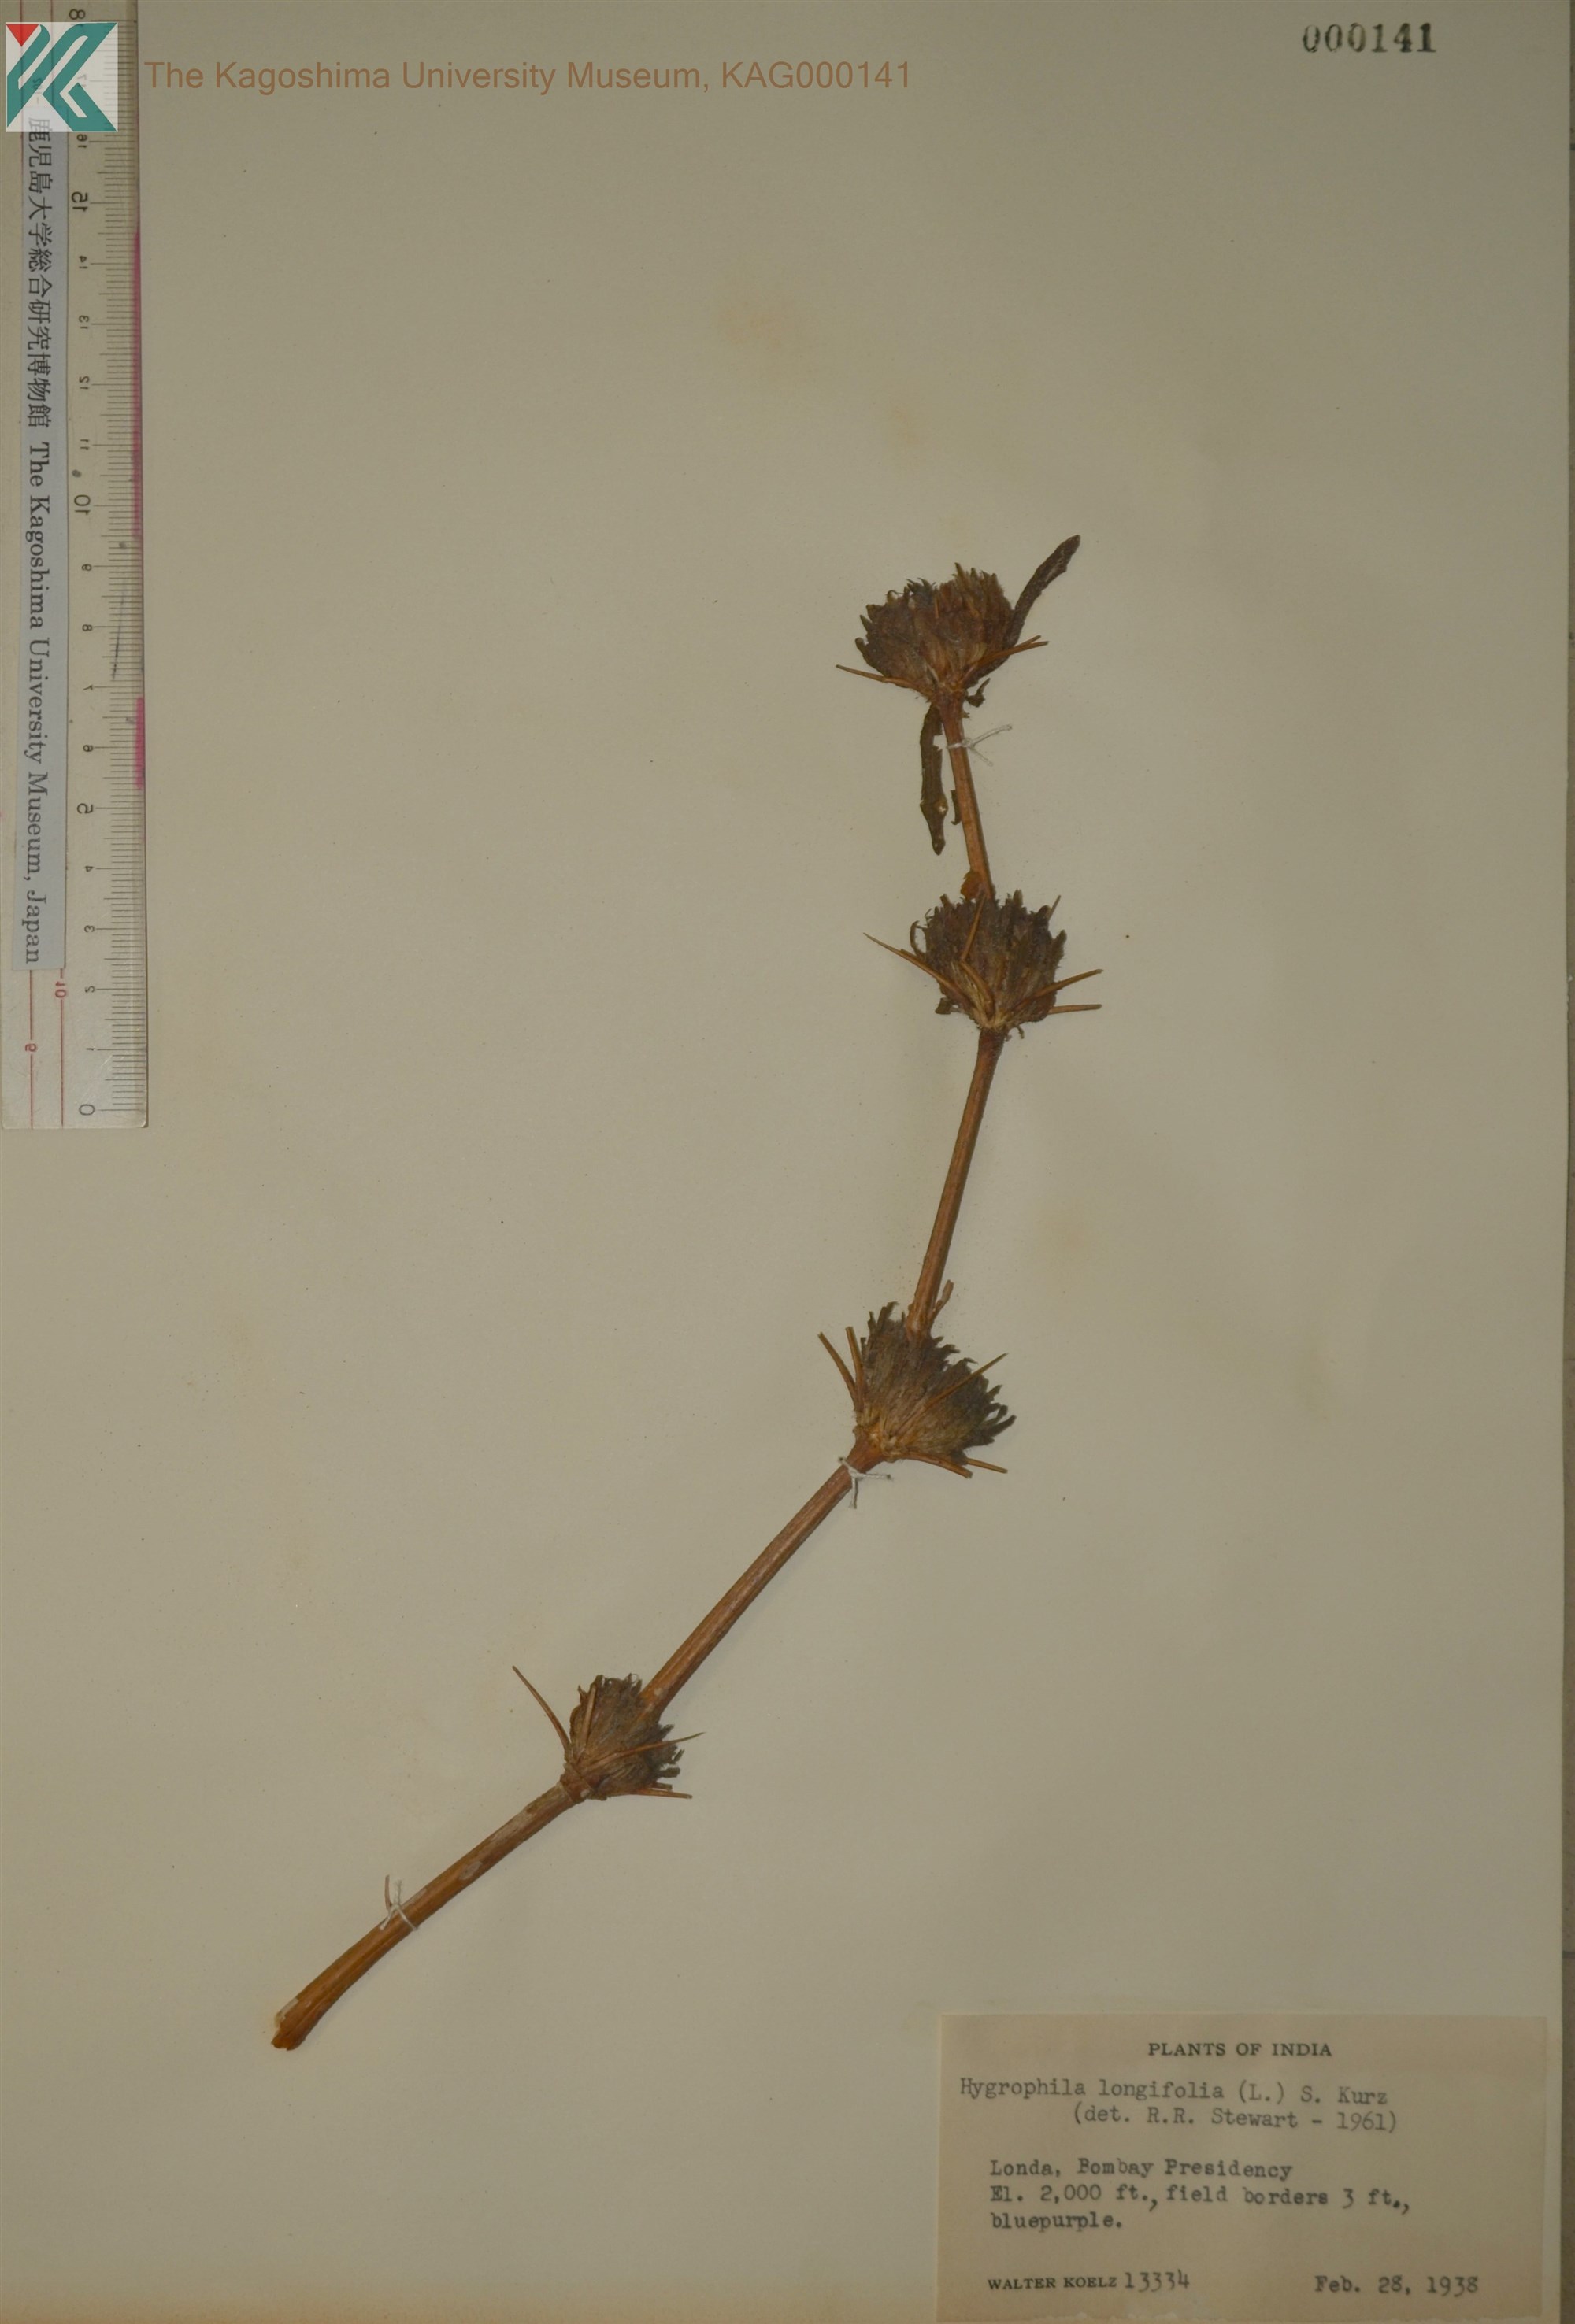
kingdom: Plantae
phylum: Tracheophyta
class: Magnoliopsida
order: Lamiales
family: Acanthaceae
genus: Hygrophila
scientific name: Hygrophila auriculata
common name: Hygrophila
